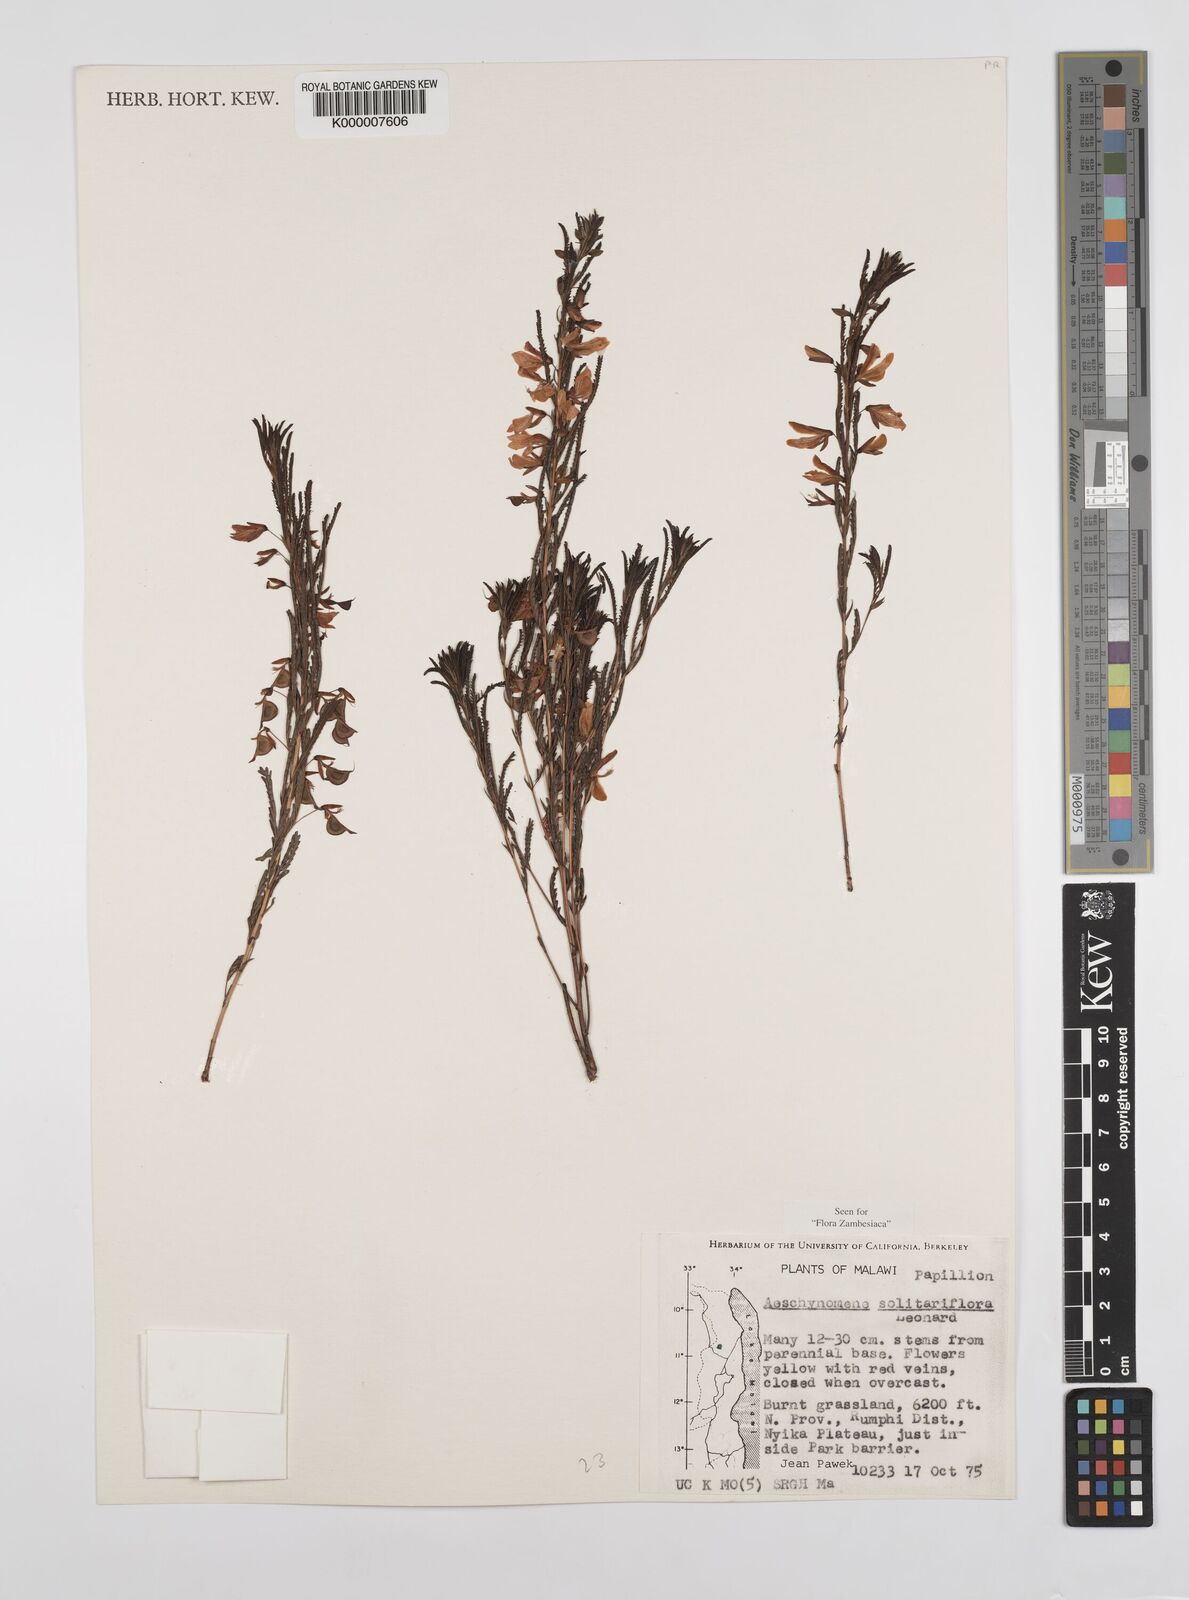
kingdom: Plantae
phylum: Tracheophyta
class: Magnoliopsida
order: Fabales
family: Fabaceae
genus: Aeschynomene
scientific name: Aeschynomene solitariiflora
